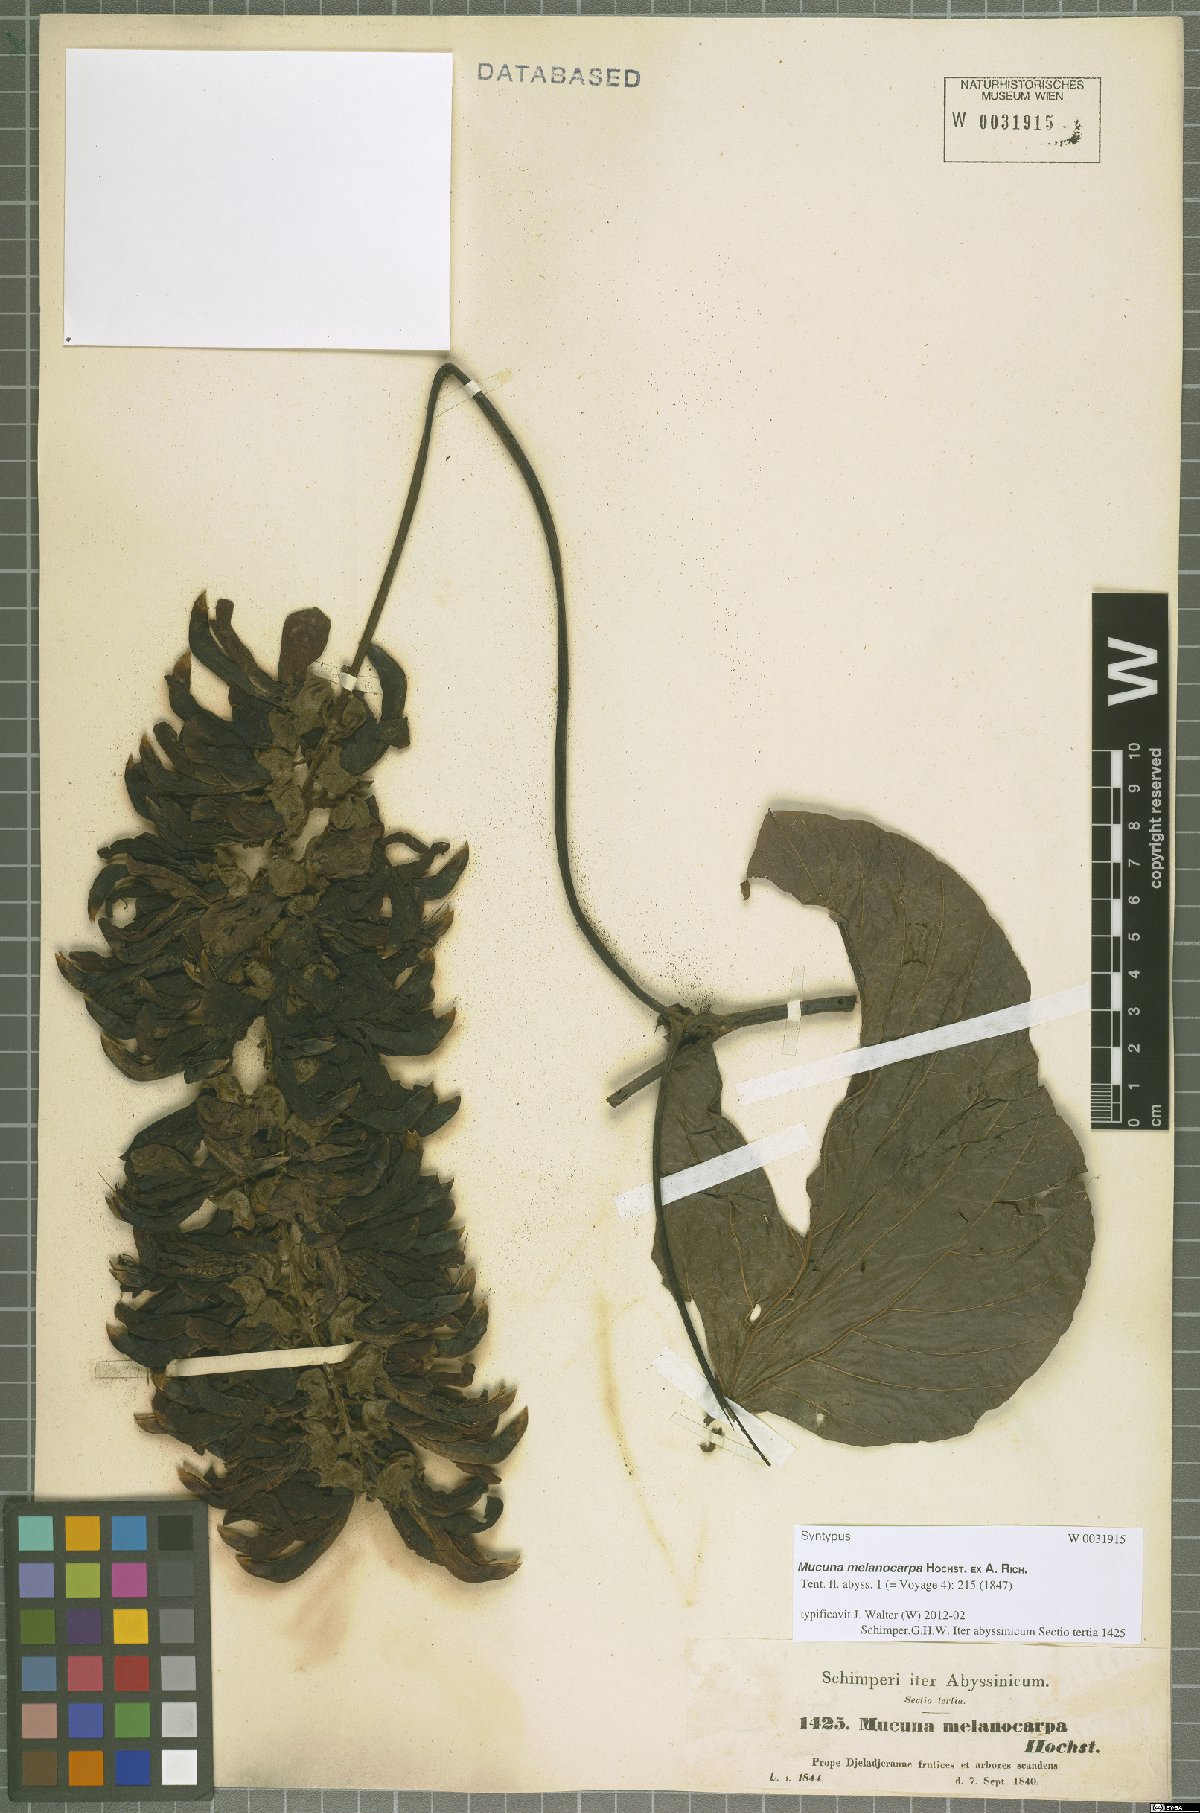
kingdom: Plantae
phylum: Tracheophyta
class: Magnoliopsida
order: Fabales
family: Fabaceae
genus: Mucuna
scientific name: Mucuna melanocarpa
